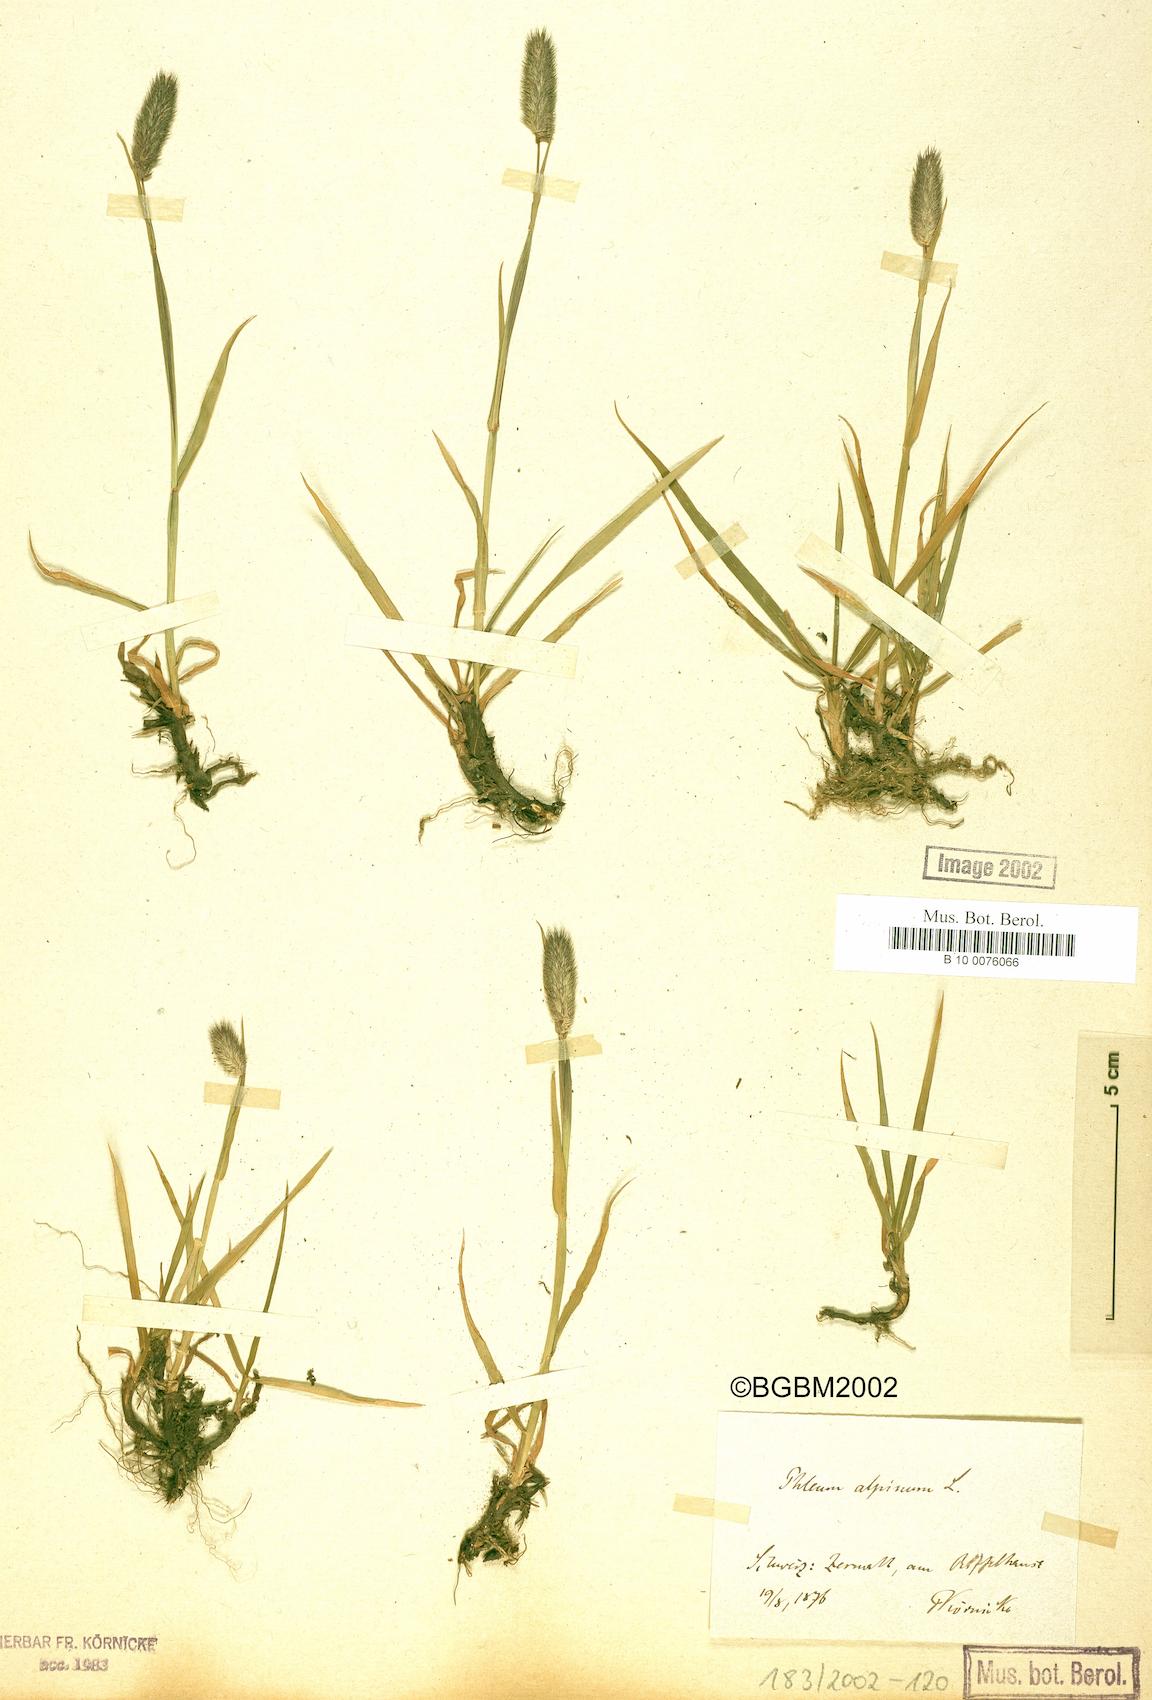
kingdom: Plantae
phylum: Tracheophyta
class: Liliopsida
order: Poales
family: Poaceae
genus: Phleum
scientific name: Phleum alpinum
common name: Alpine cat's-tail
